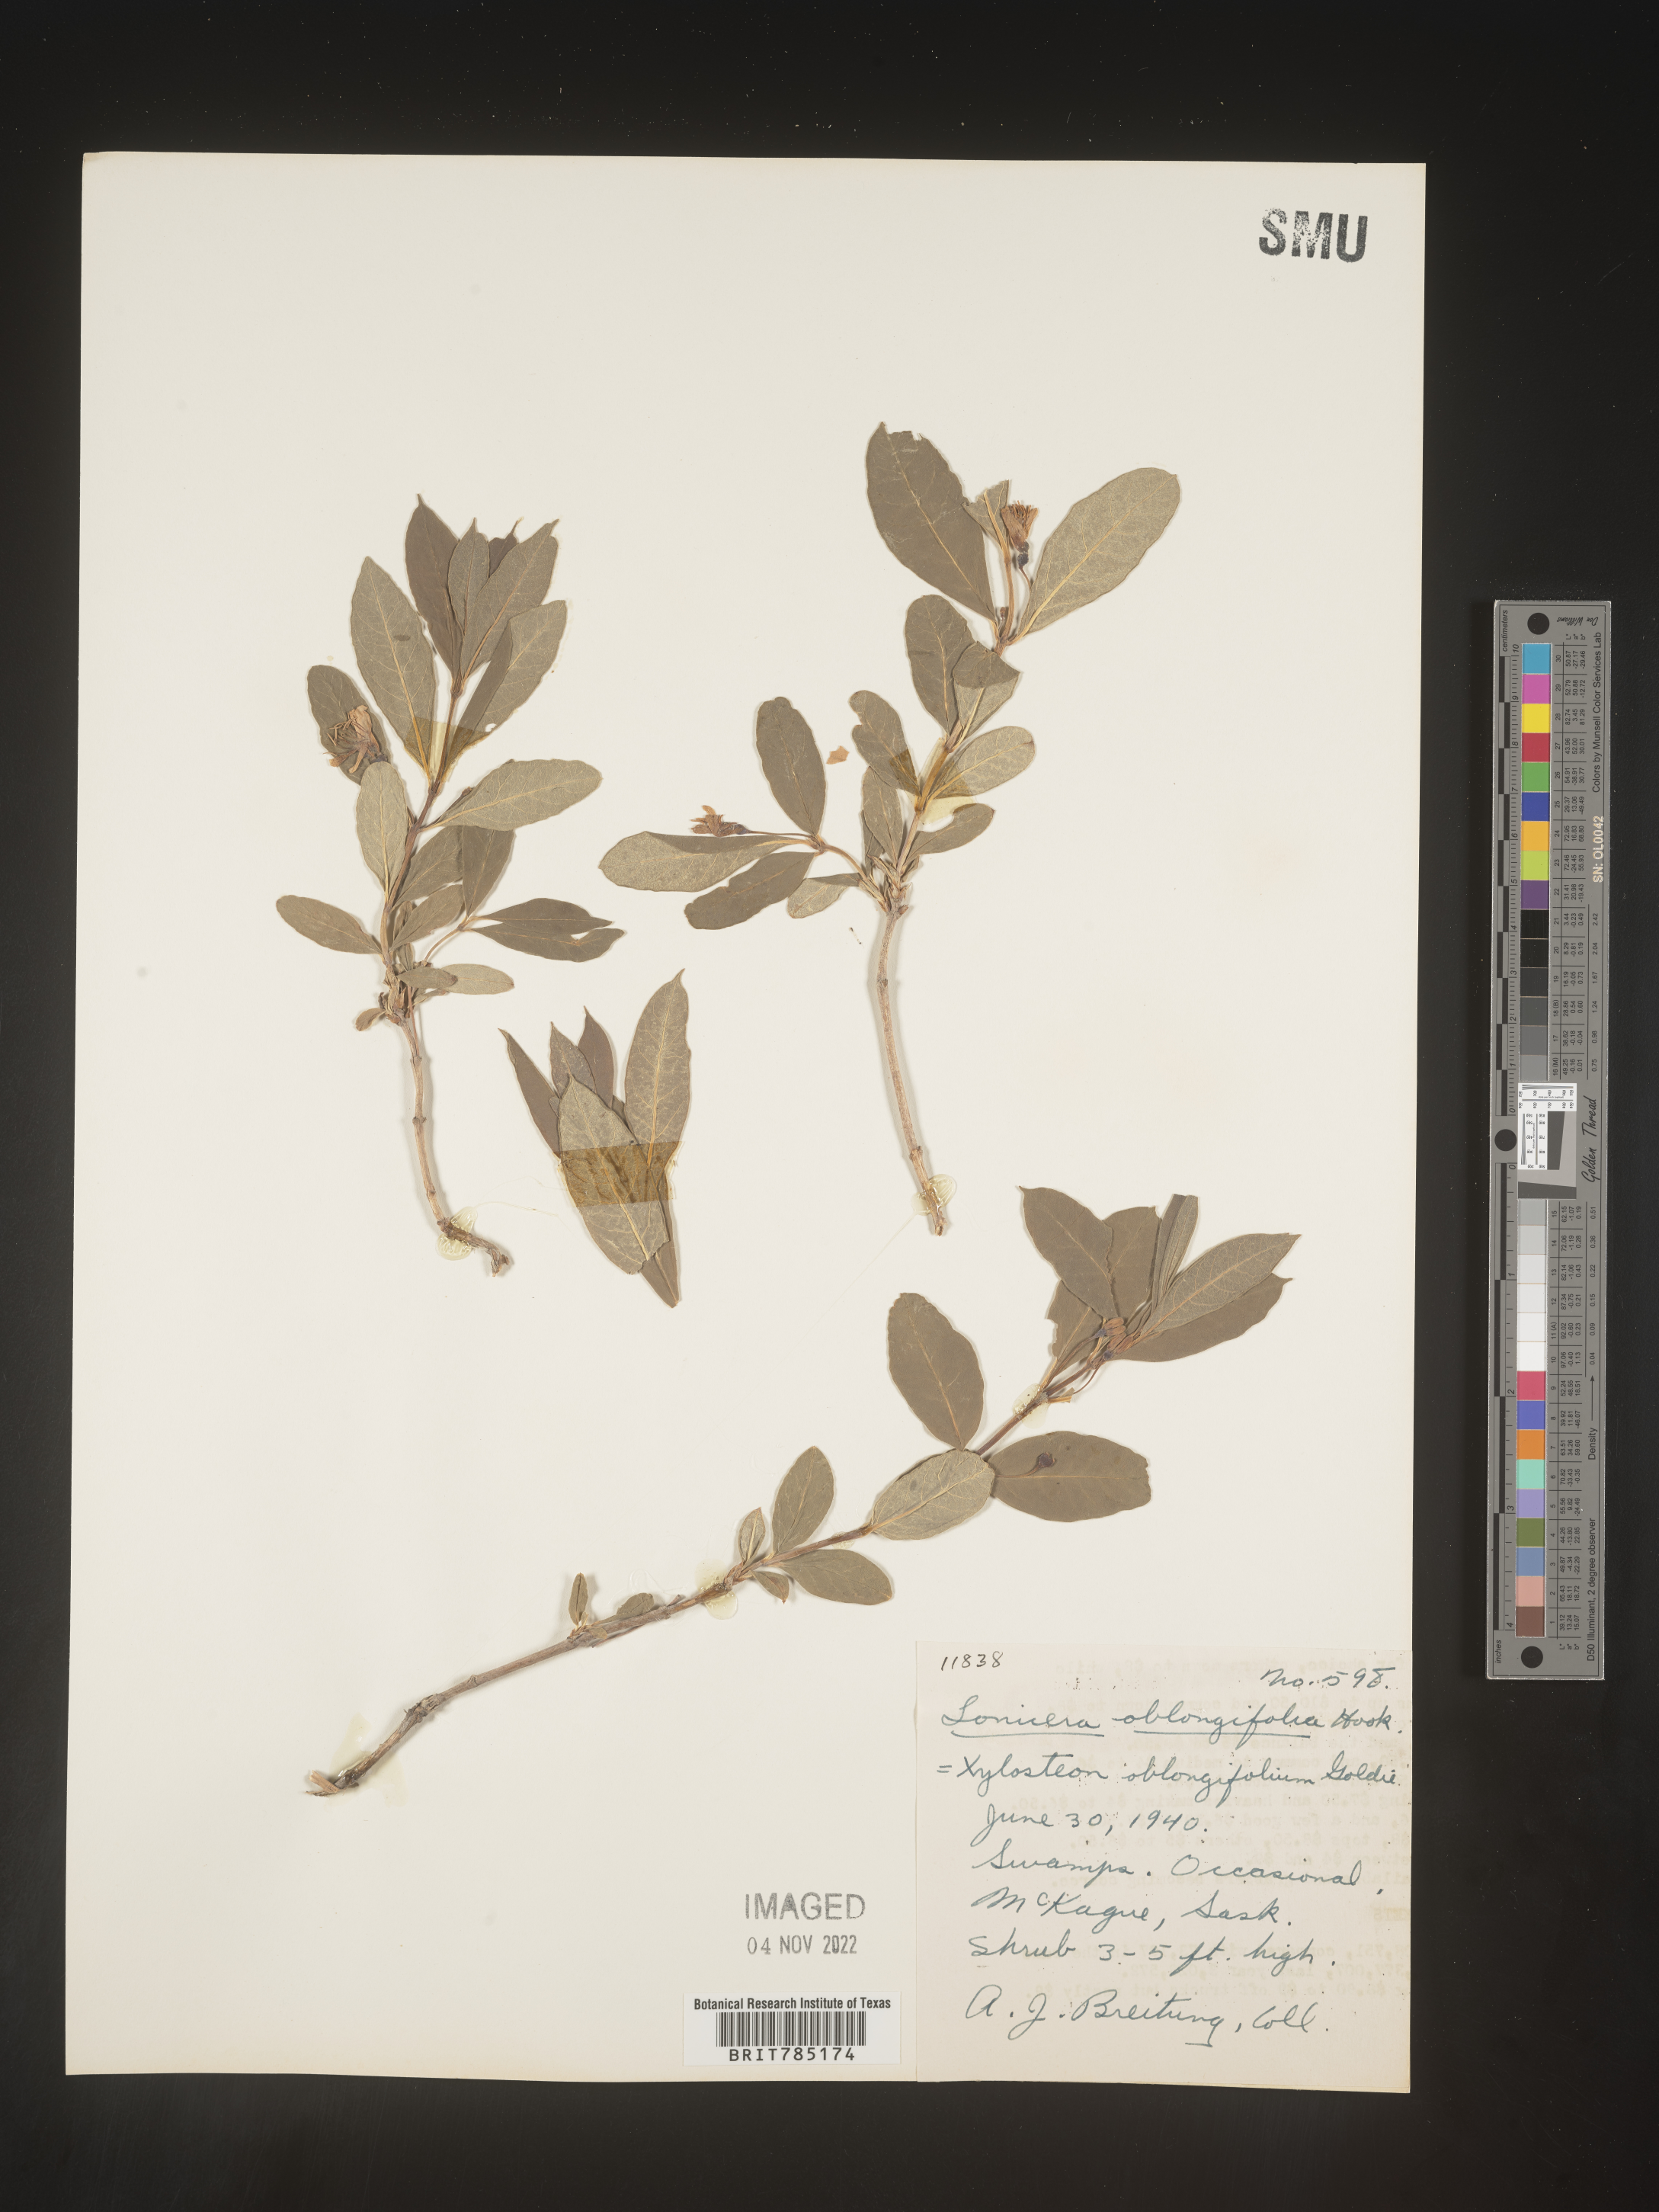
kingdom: Plantae
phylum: Tracheophyta
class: Magnoliopsida
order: Dipsacales
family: Caprifoliaceae
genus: Lonicera
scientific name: Lonicera
